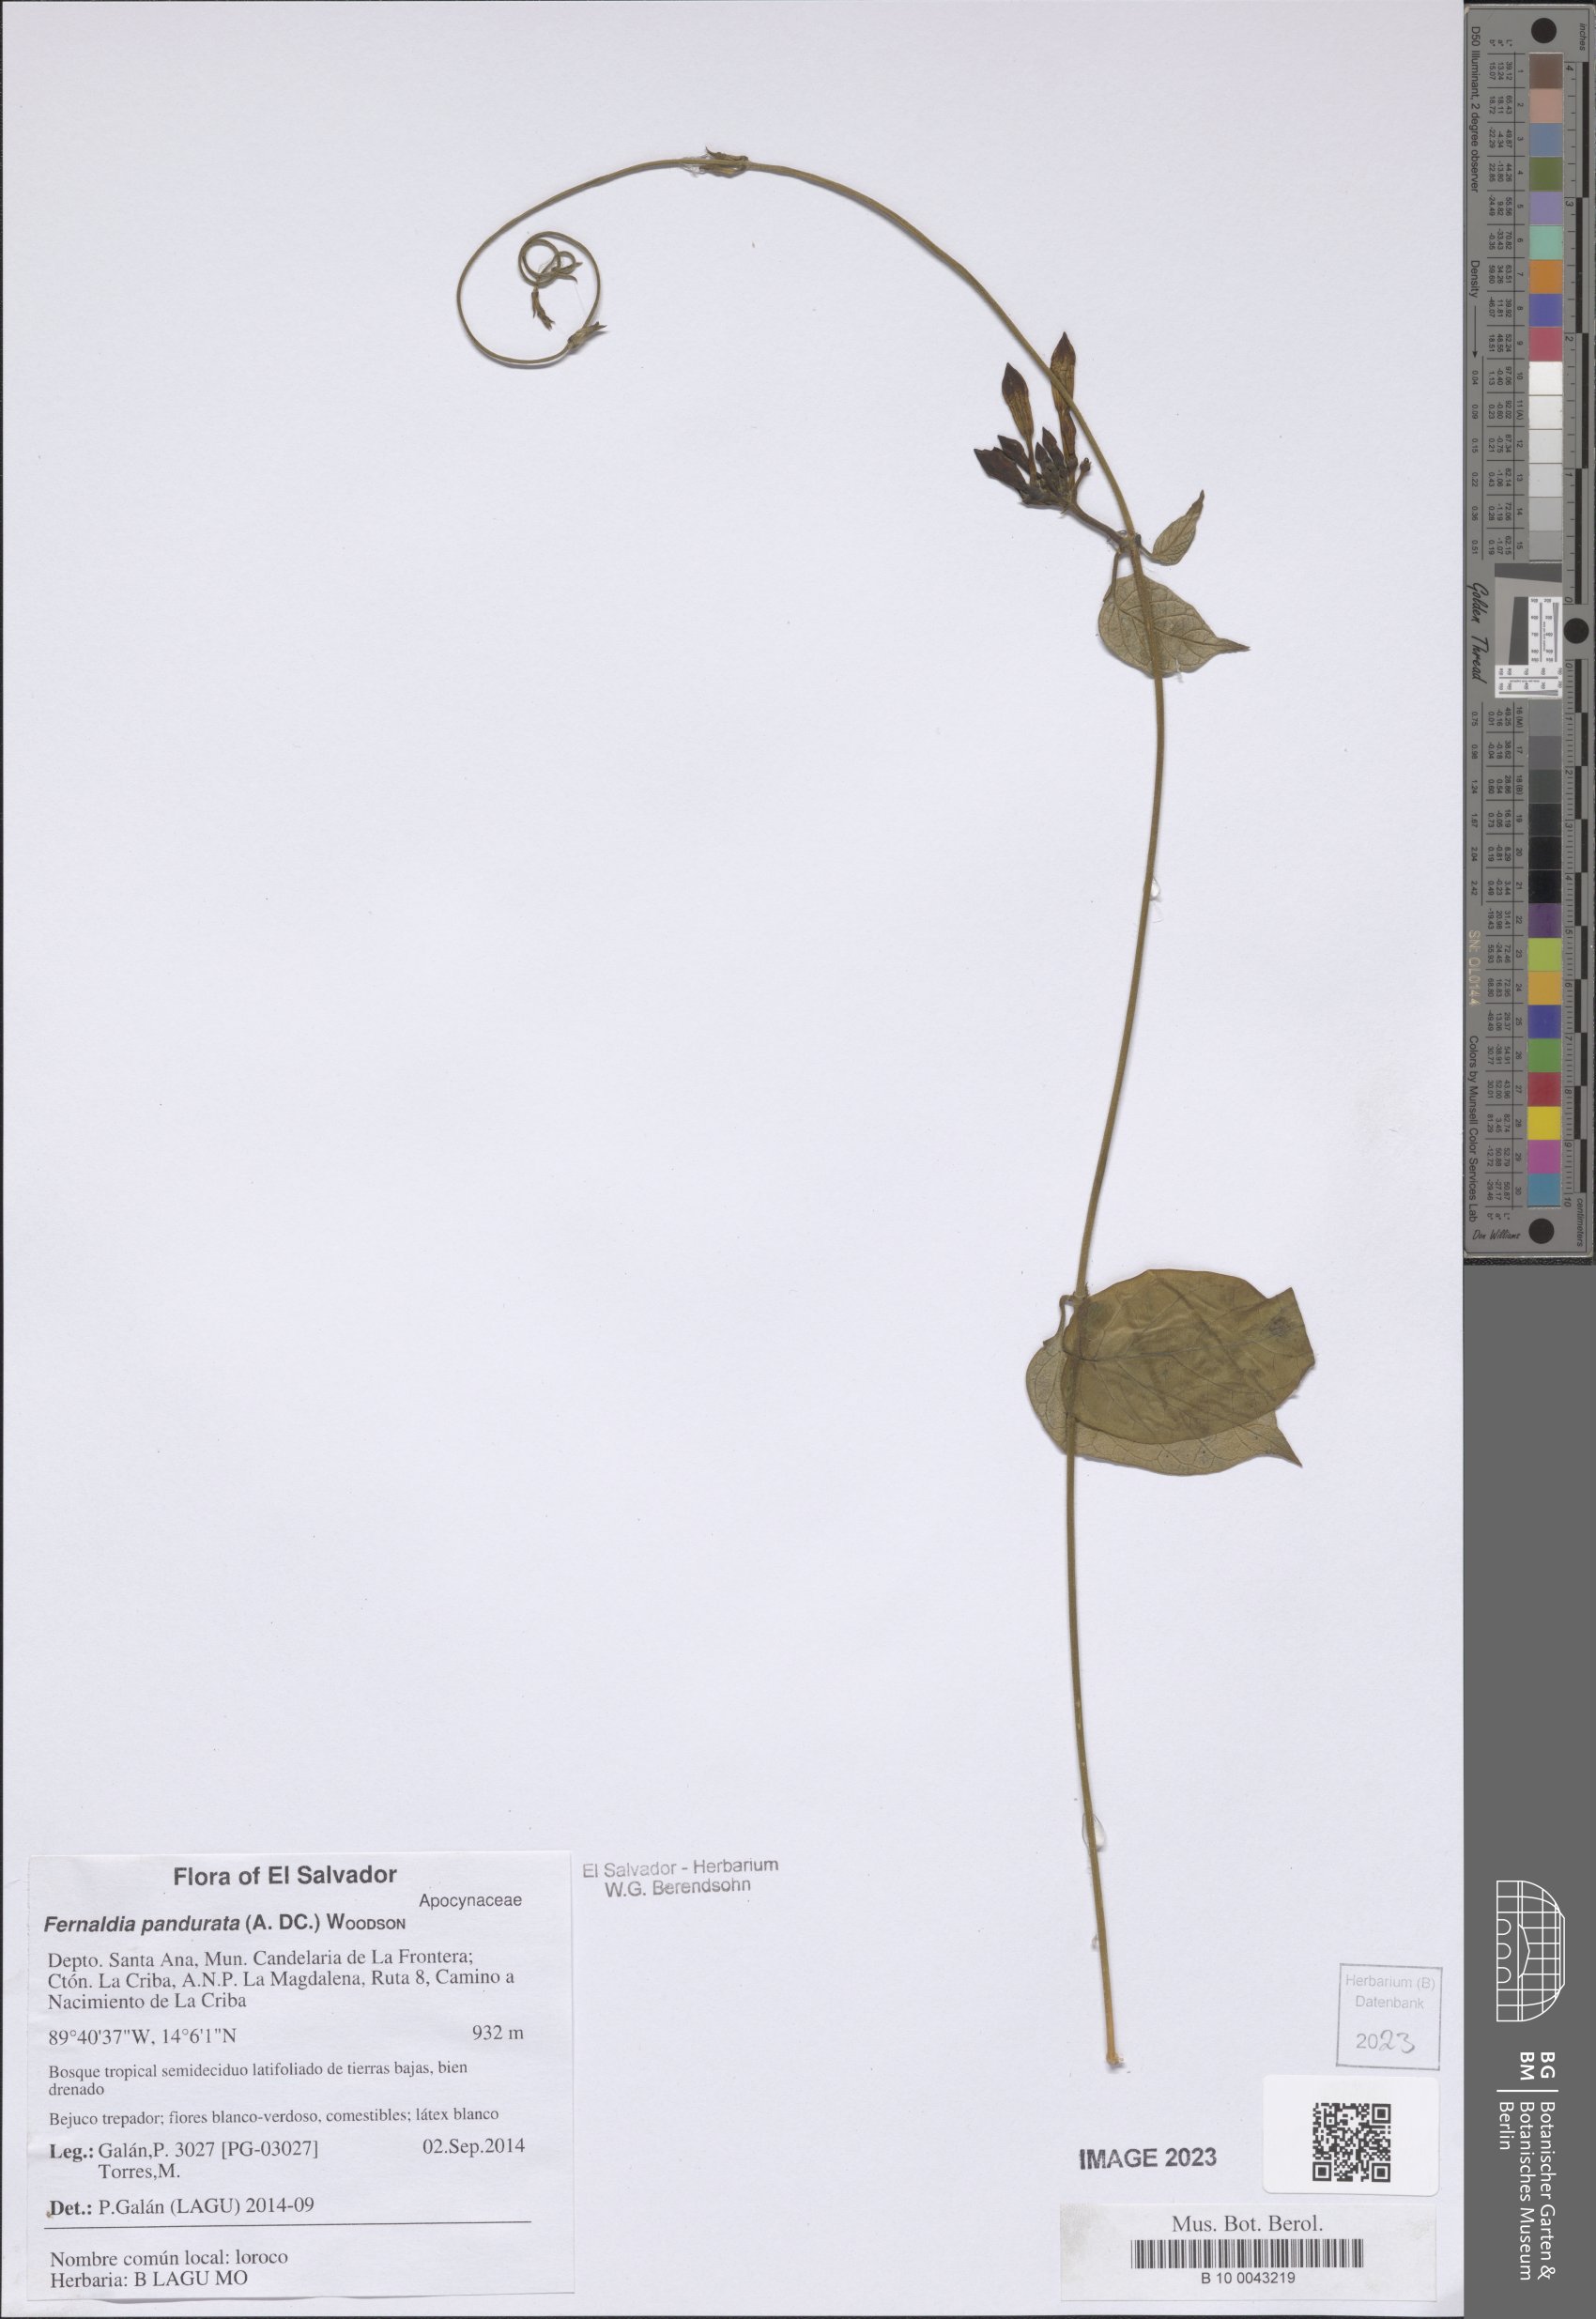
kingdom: Plantae
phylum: Tracheophyta
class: Magnoliopsida
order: Gentianales
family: Apocynaceae
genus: Echites
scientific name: Echites panduratus
